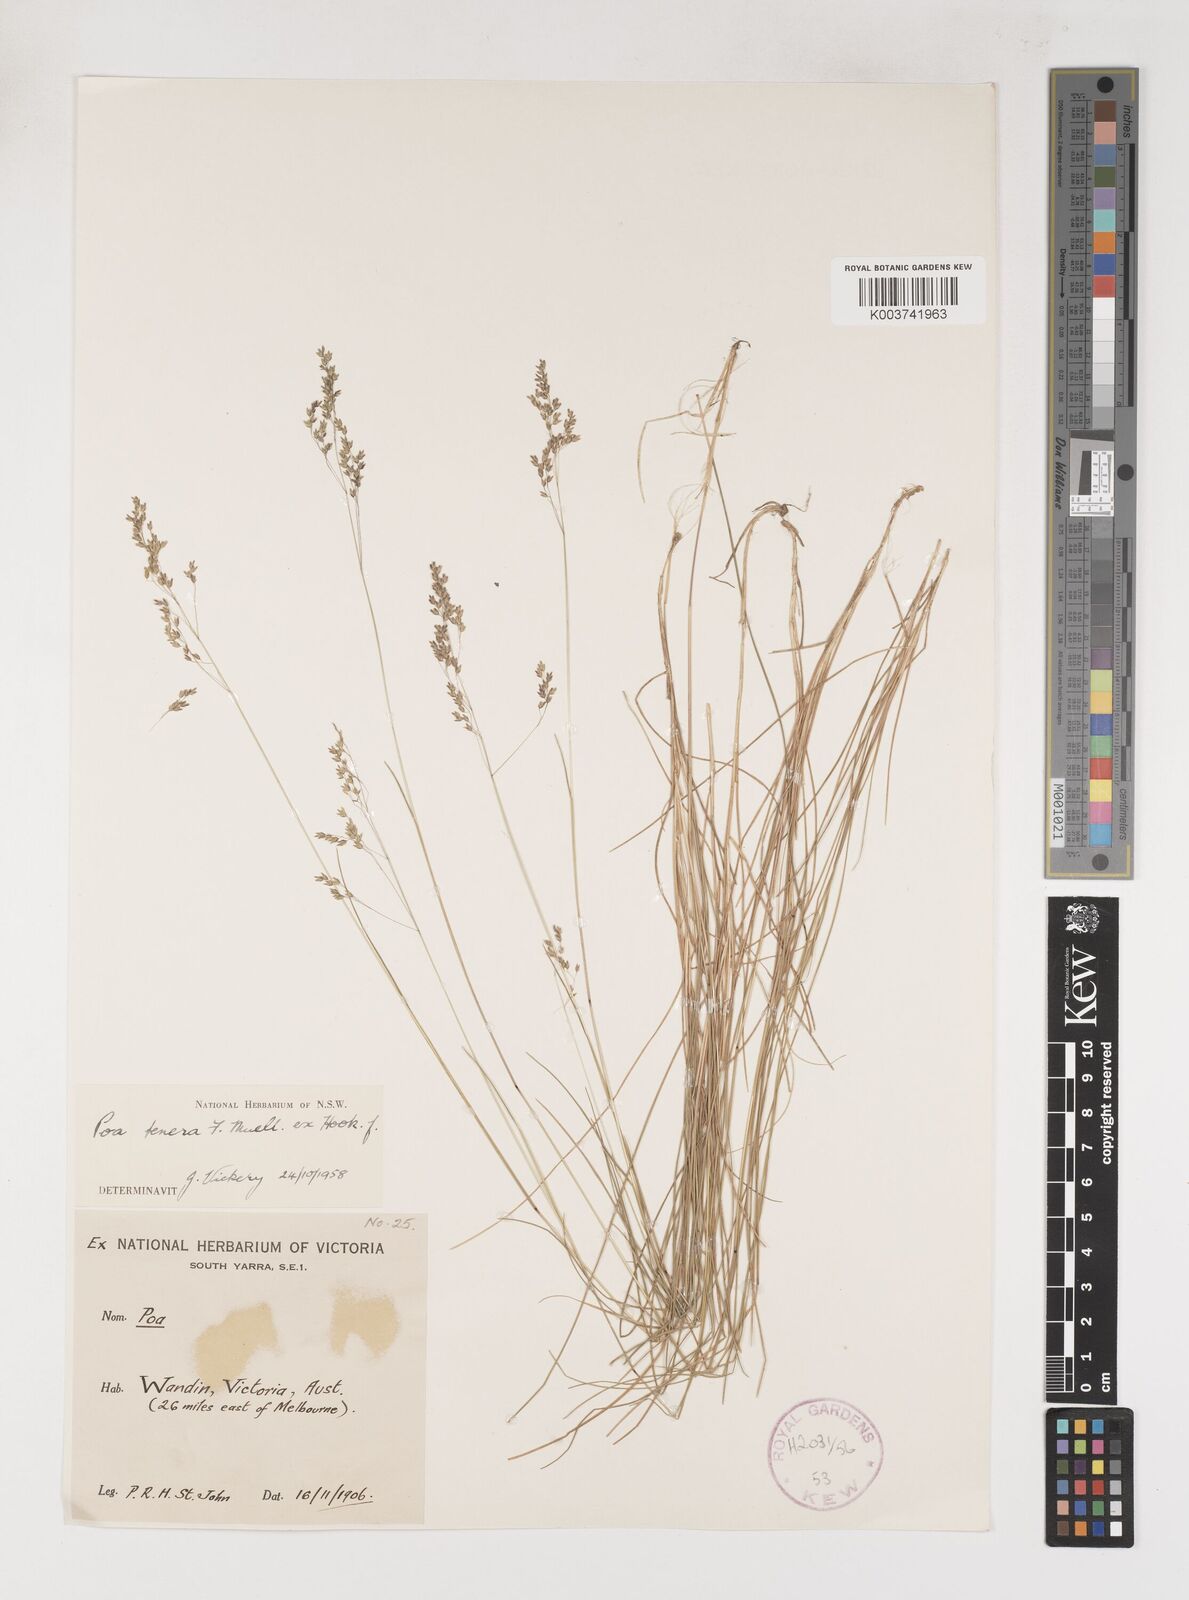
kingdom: Plantae
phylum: Tracheophyta
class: Liliopsida
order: Poales
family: Poaceae
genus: Poa
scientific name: Poa tenera
